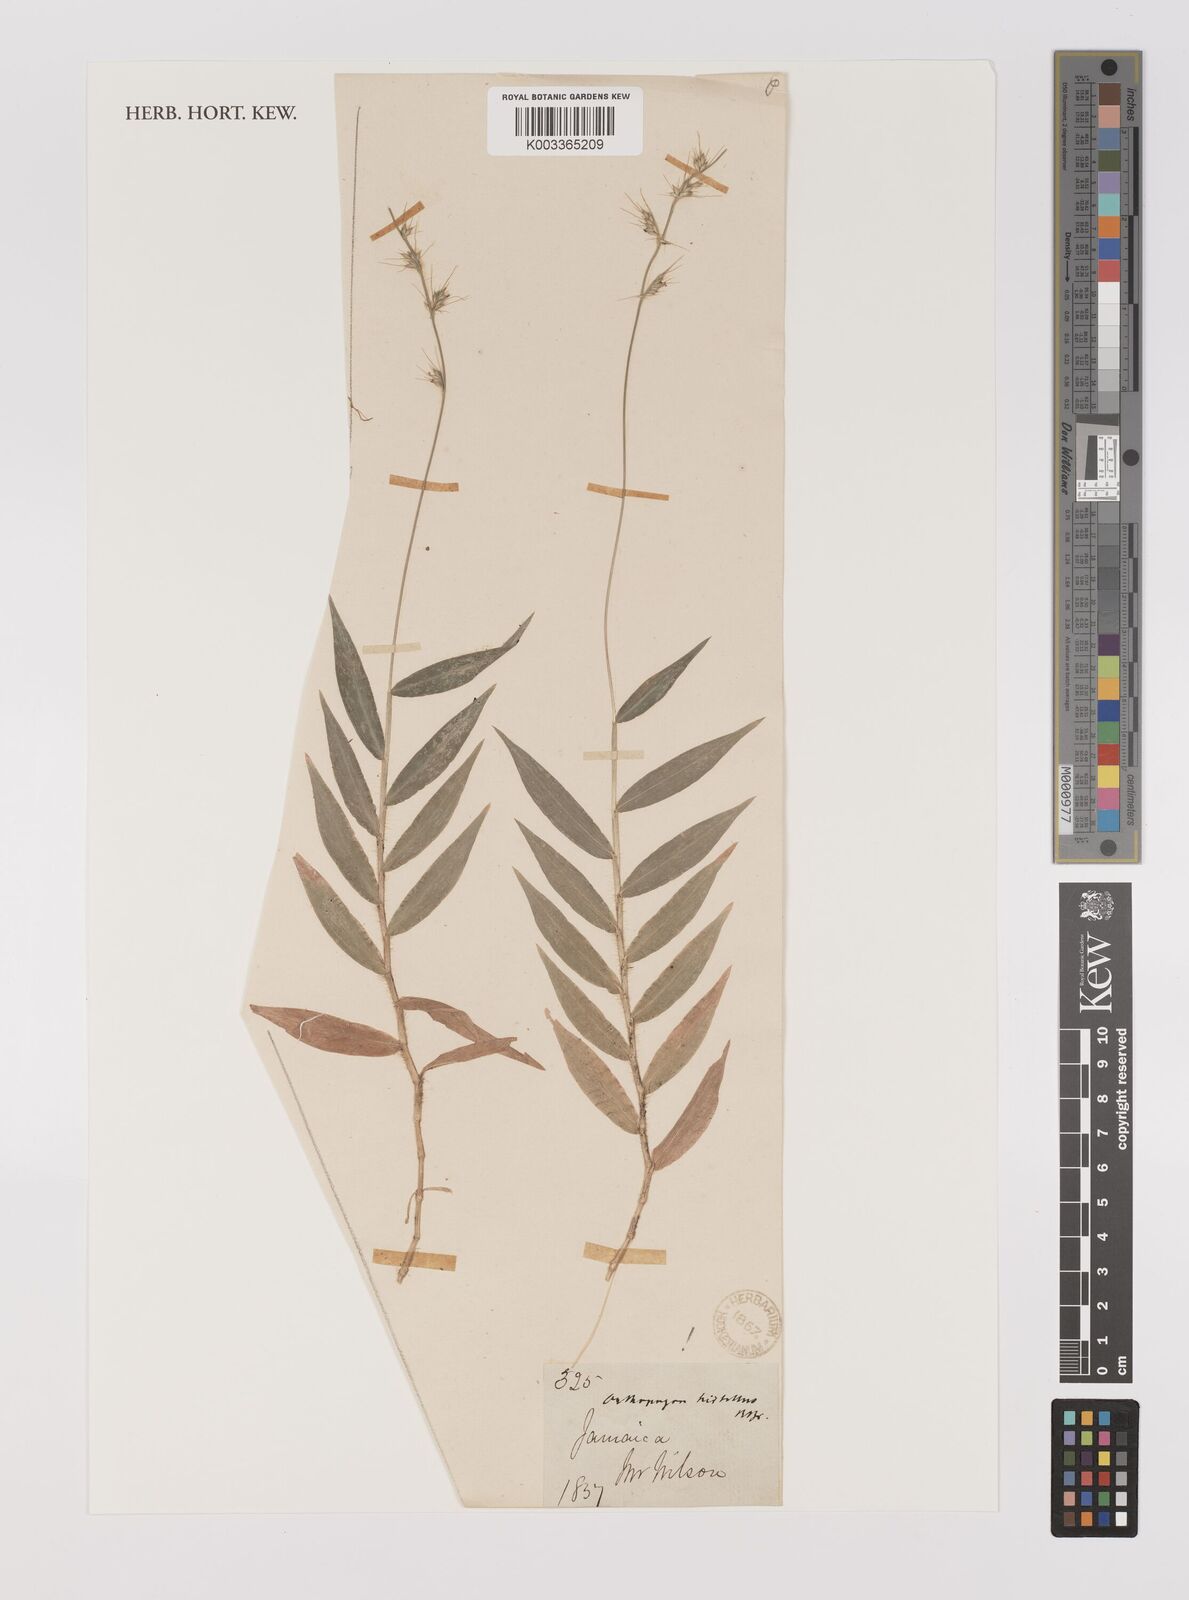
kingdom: Plantae
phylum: Tracheophyta
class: Liliopsida
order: Poales
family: Poaceae
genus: Oplismenus
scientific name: Oplismenus hirtellus
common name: Basketgrass
